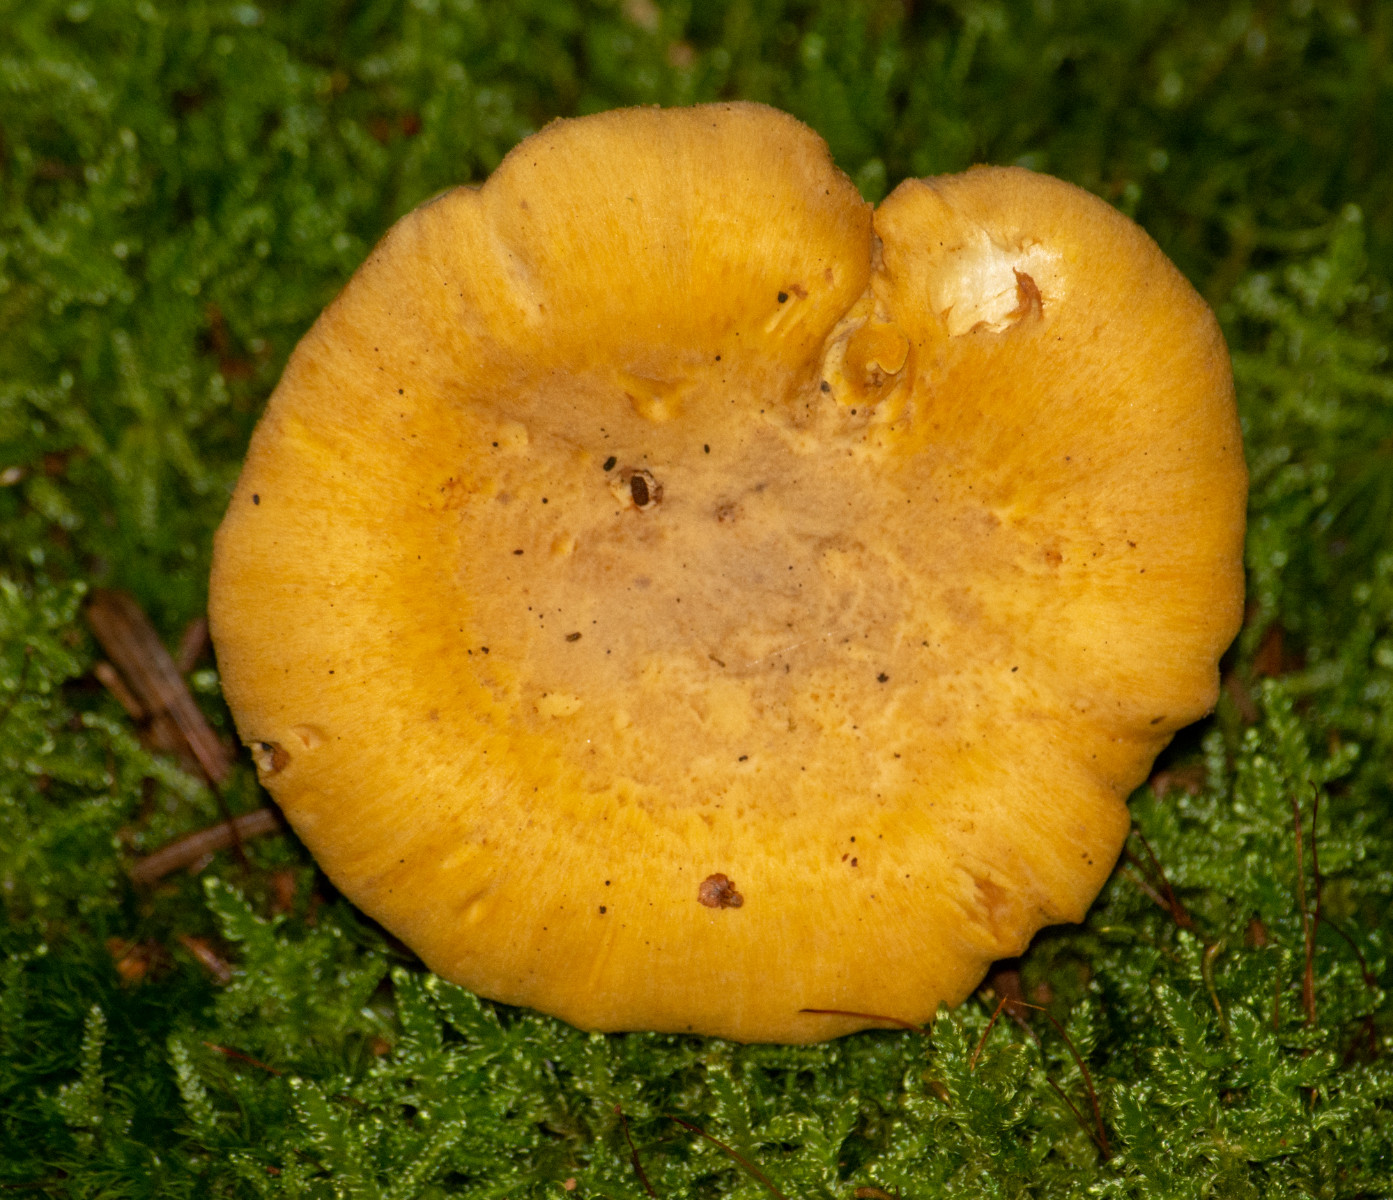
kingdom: Fungi
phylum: Basidiomycota
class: Agaricomycetes
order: Cantharellales
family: Hydnaceae
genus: Cantharellus
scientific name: Cantharellus cibarius
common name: almindelig kantarel
